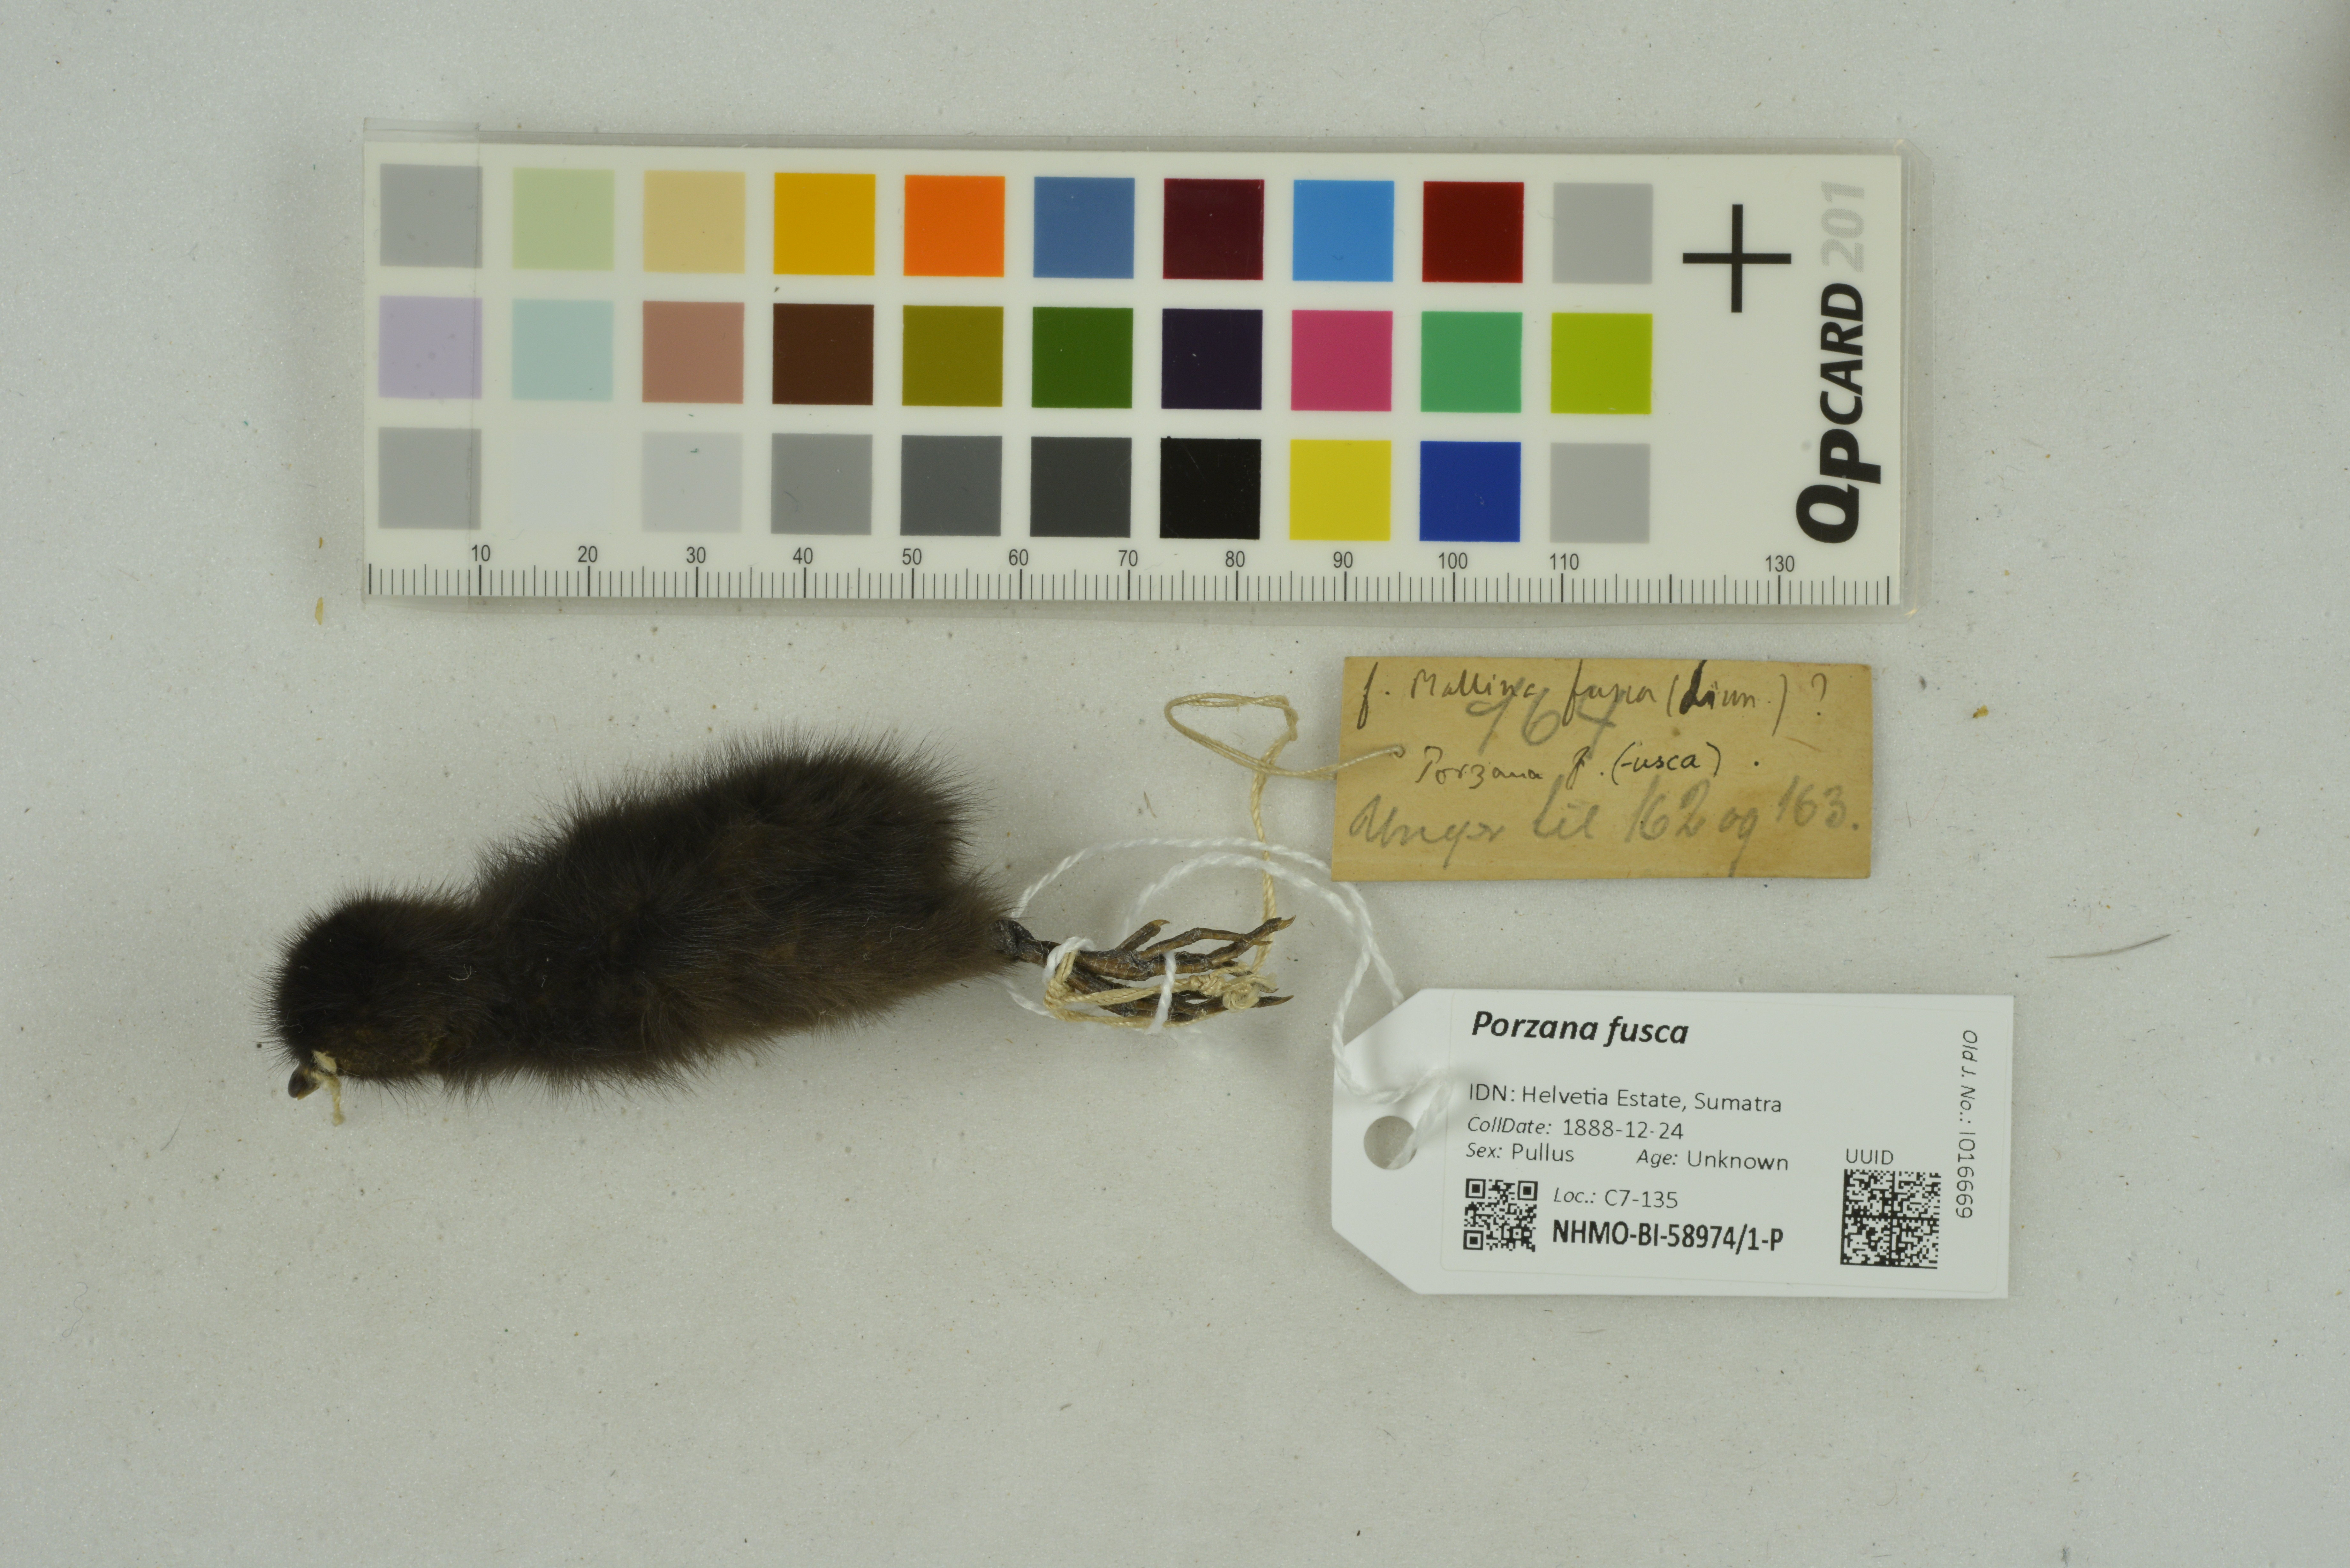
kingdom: Animalia
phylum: Chordata
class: Aves
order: Gruiformes
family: Rallidae
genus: Porzana
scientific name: Porzana fusca
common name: Ruddy-breasted crake
